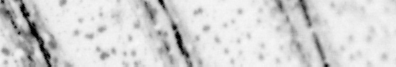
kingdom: Animalia
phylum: Chordata
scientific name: Chordata
